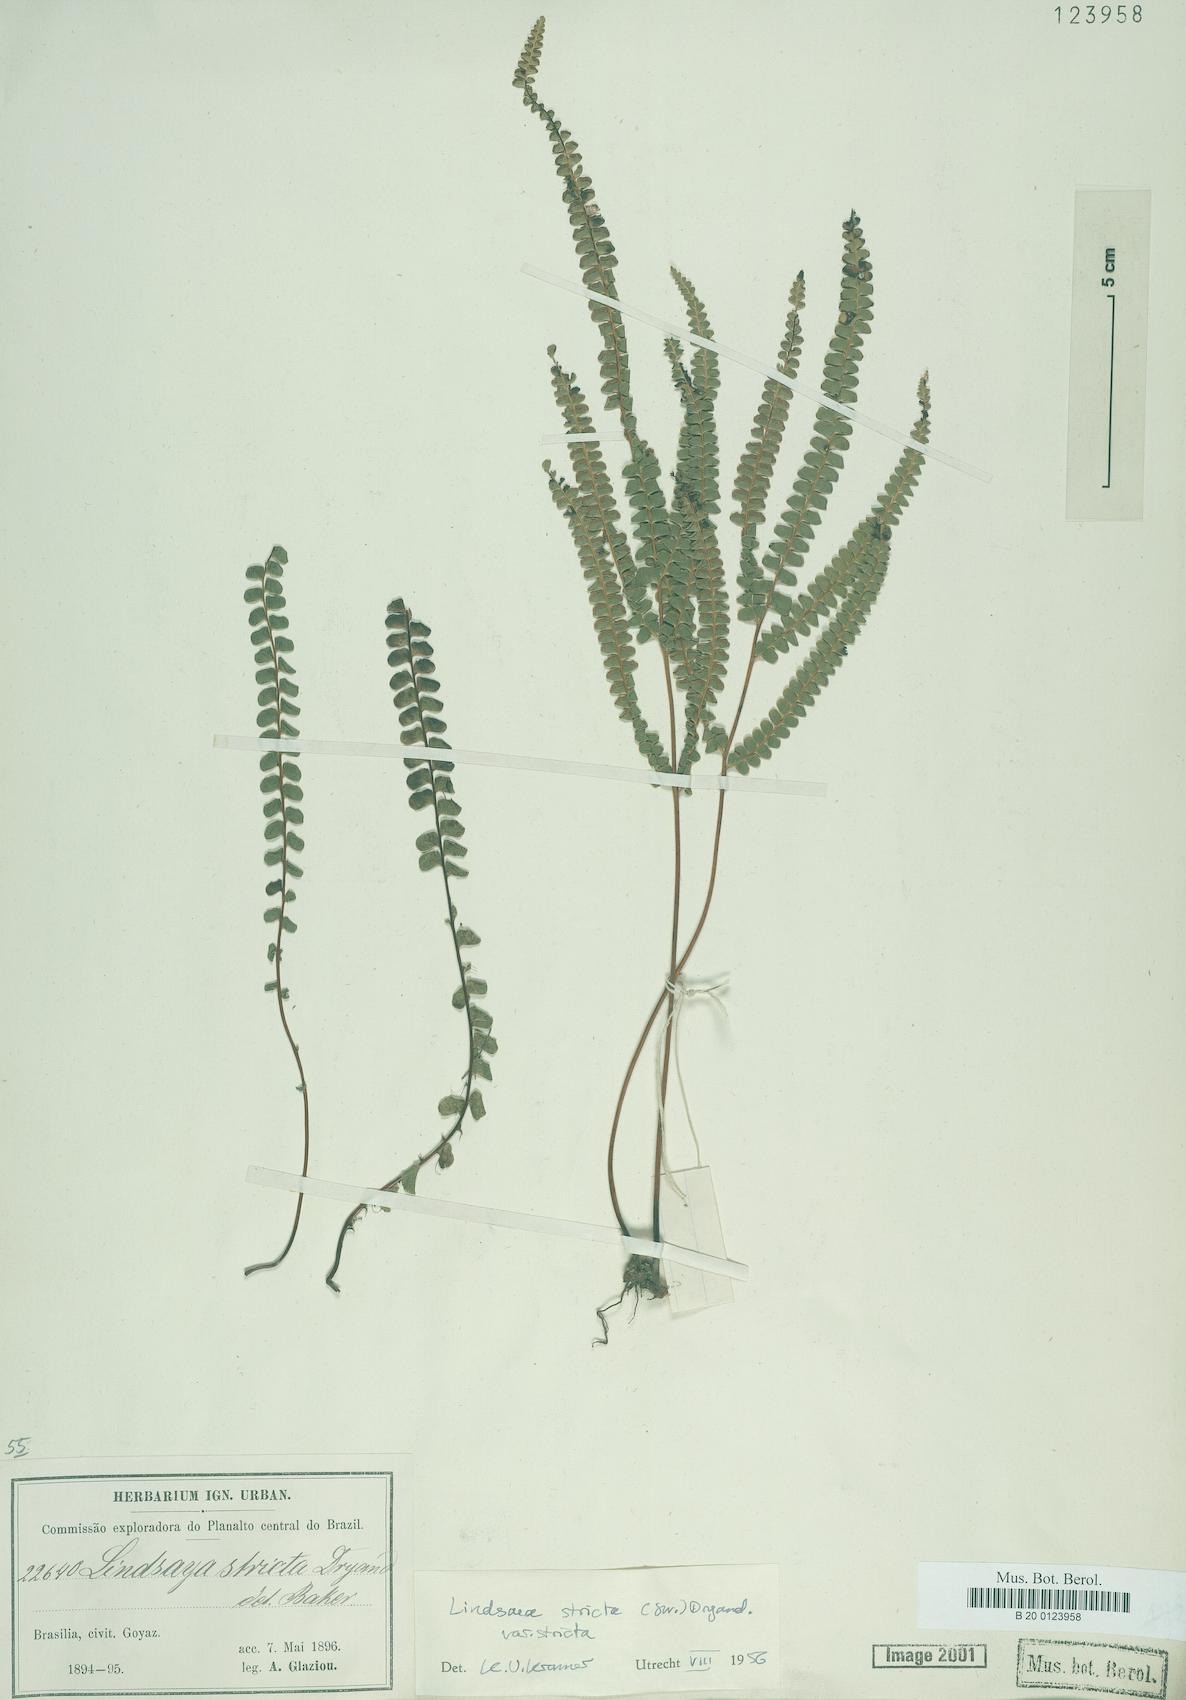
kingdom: Plantae
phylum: Tracheophyta
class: Polypodiopsida
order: Polypodiales
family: Lindsaeaceae
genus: Lindsaea
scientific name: Lindsaea stricta
